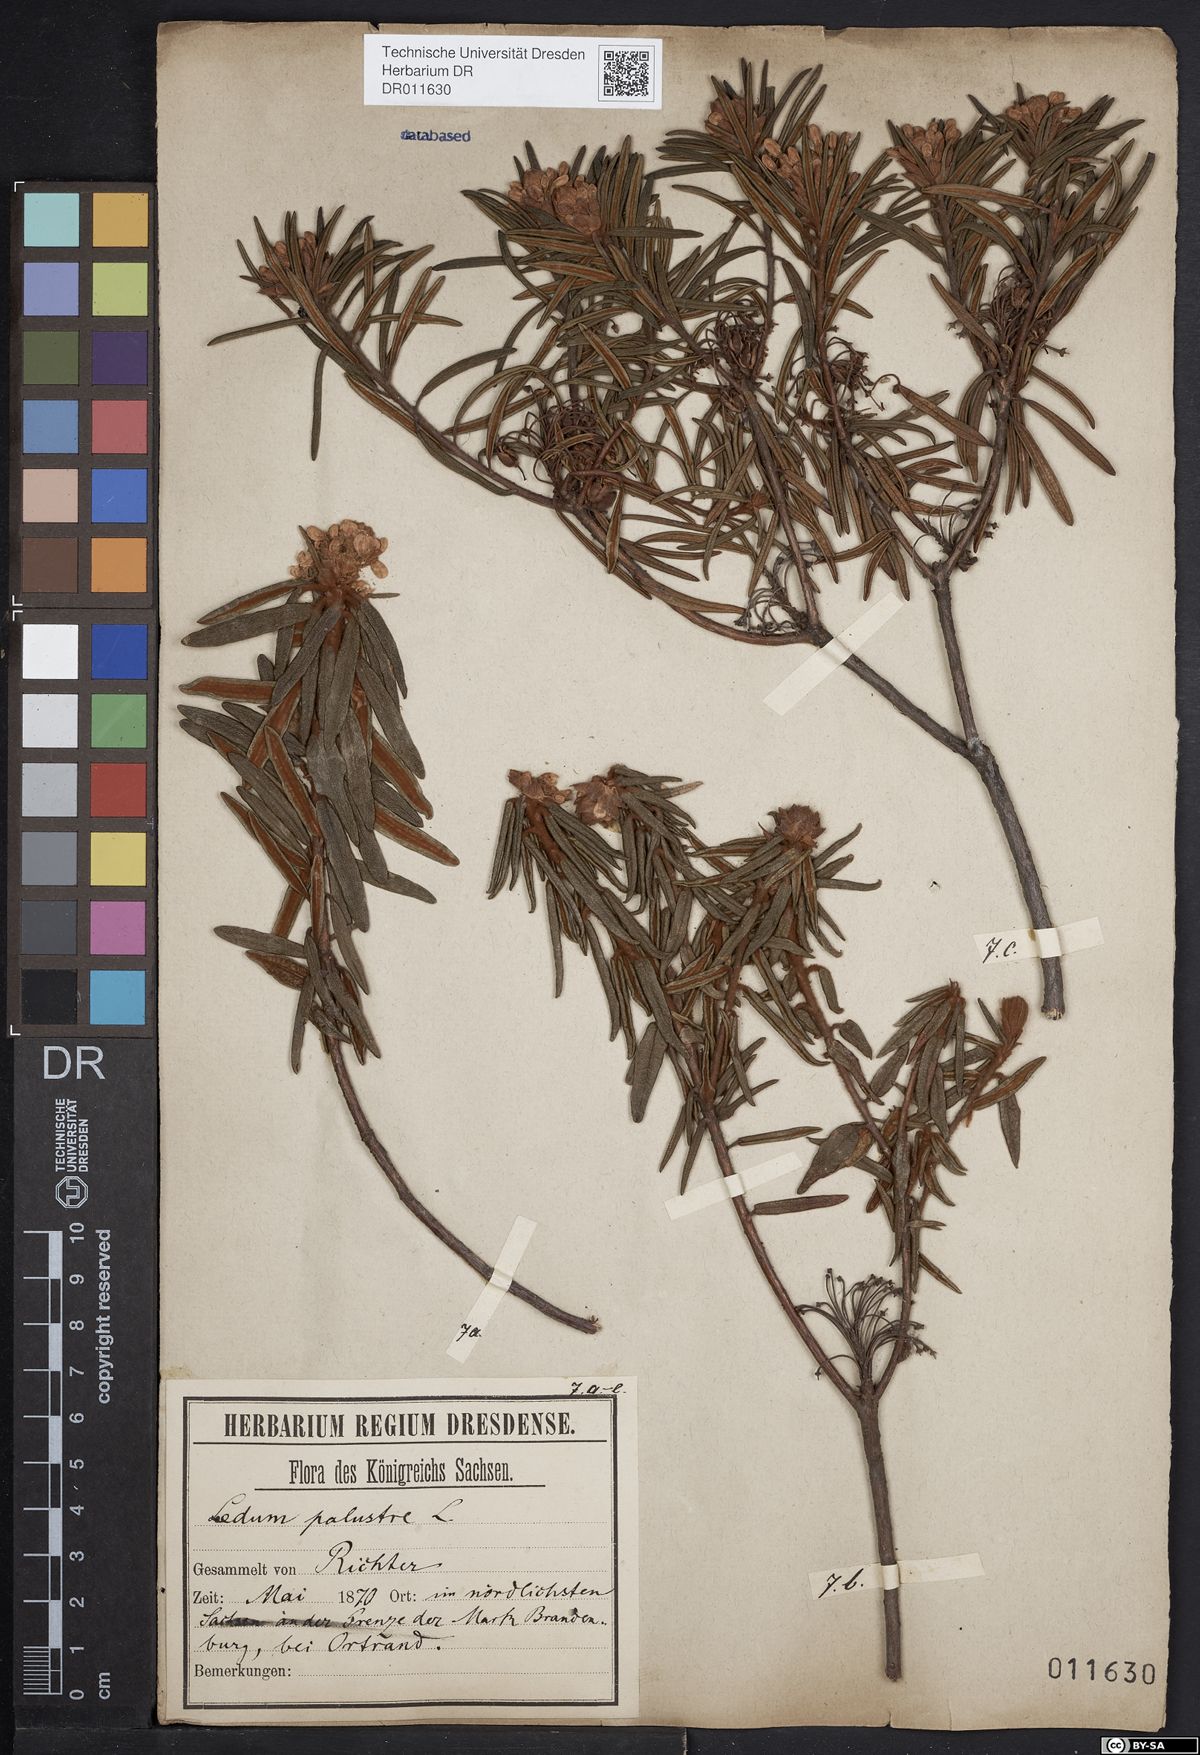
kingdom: Plantae
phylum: Tracheophyta
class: Magnoliopsida
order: Ericales
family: Ericaceae
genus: Rhododendron
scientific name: Rhododendron tomentosum
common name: Marsh labrador tea
